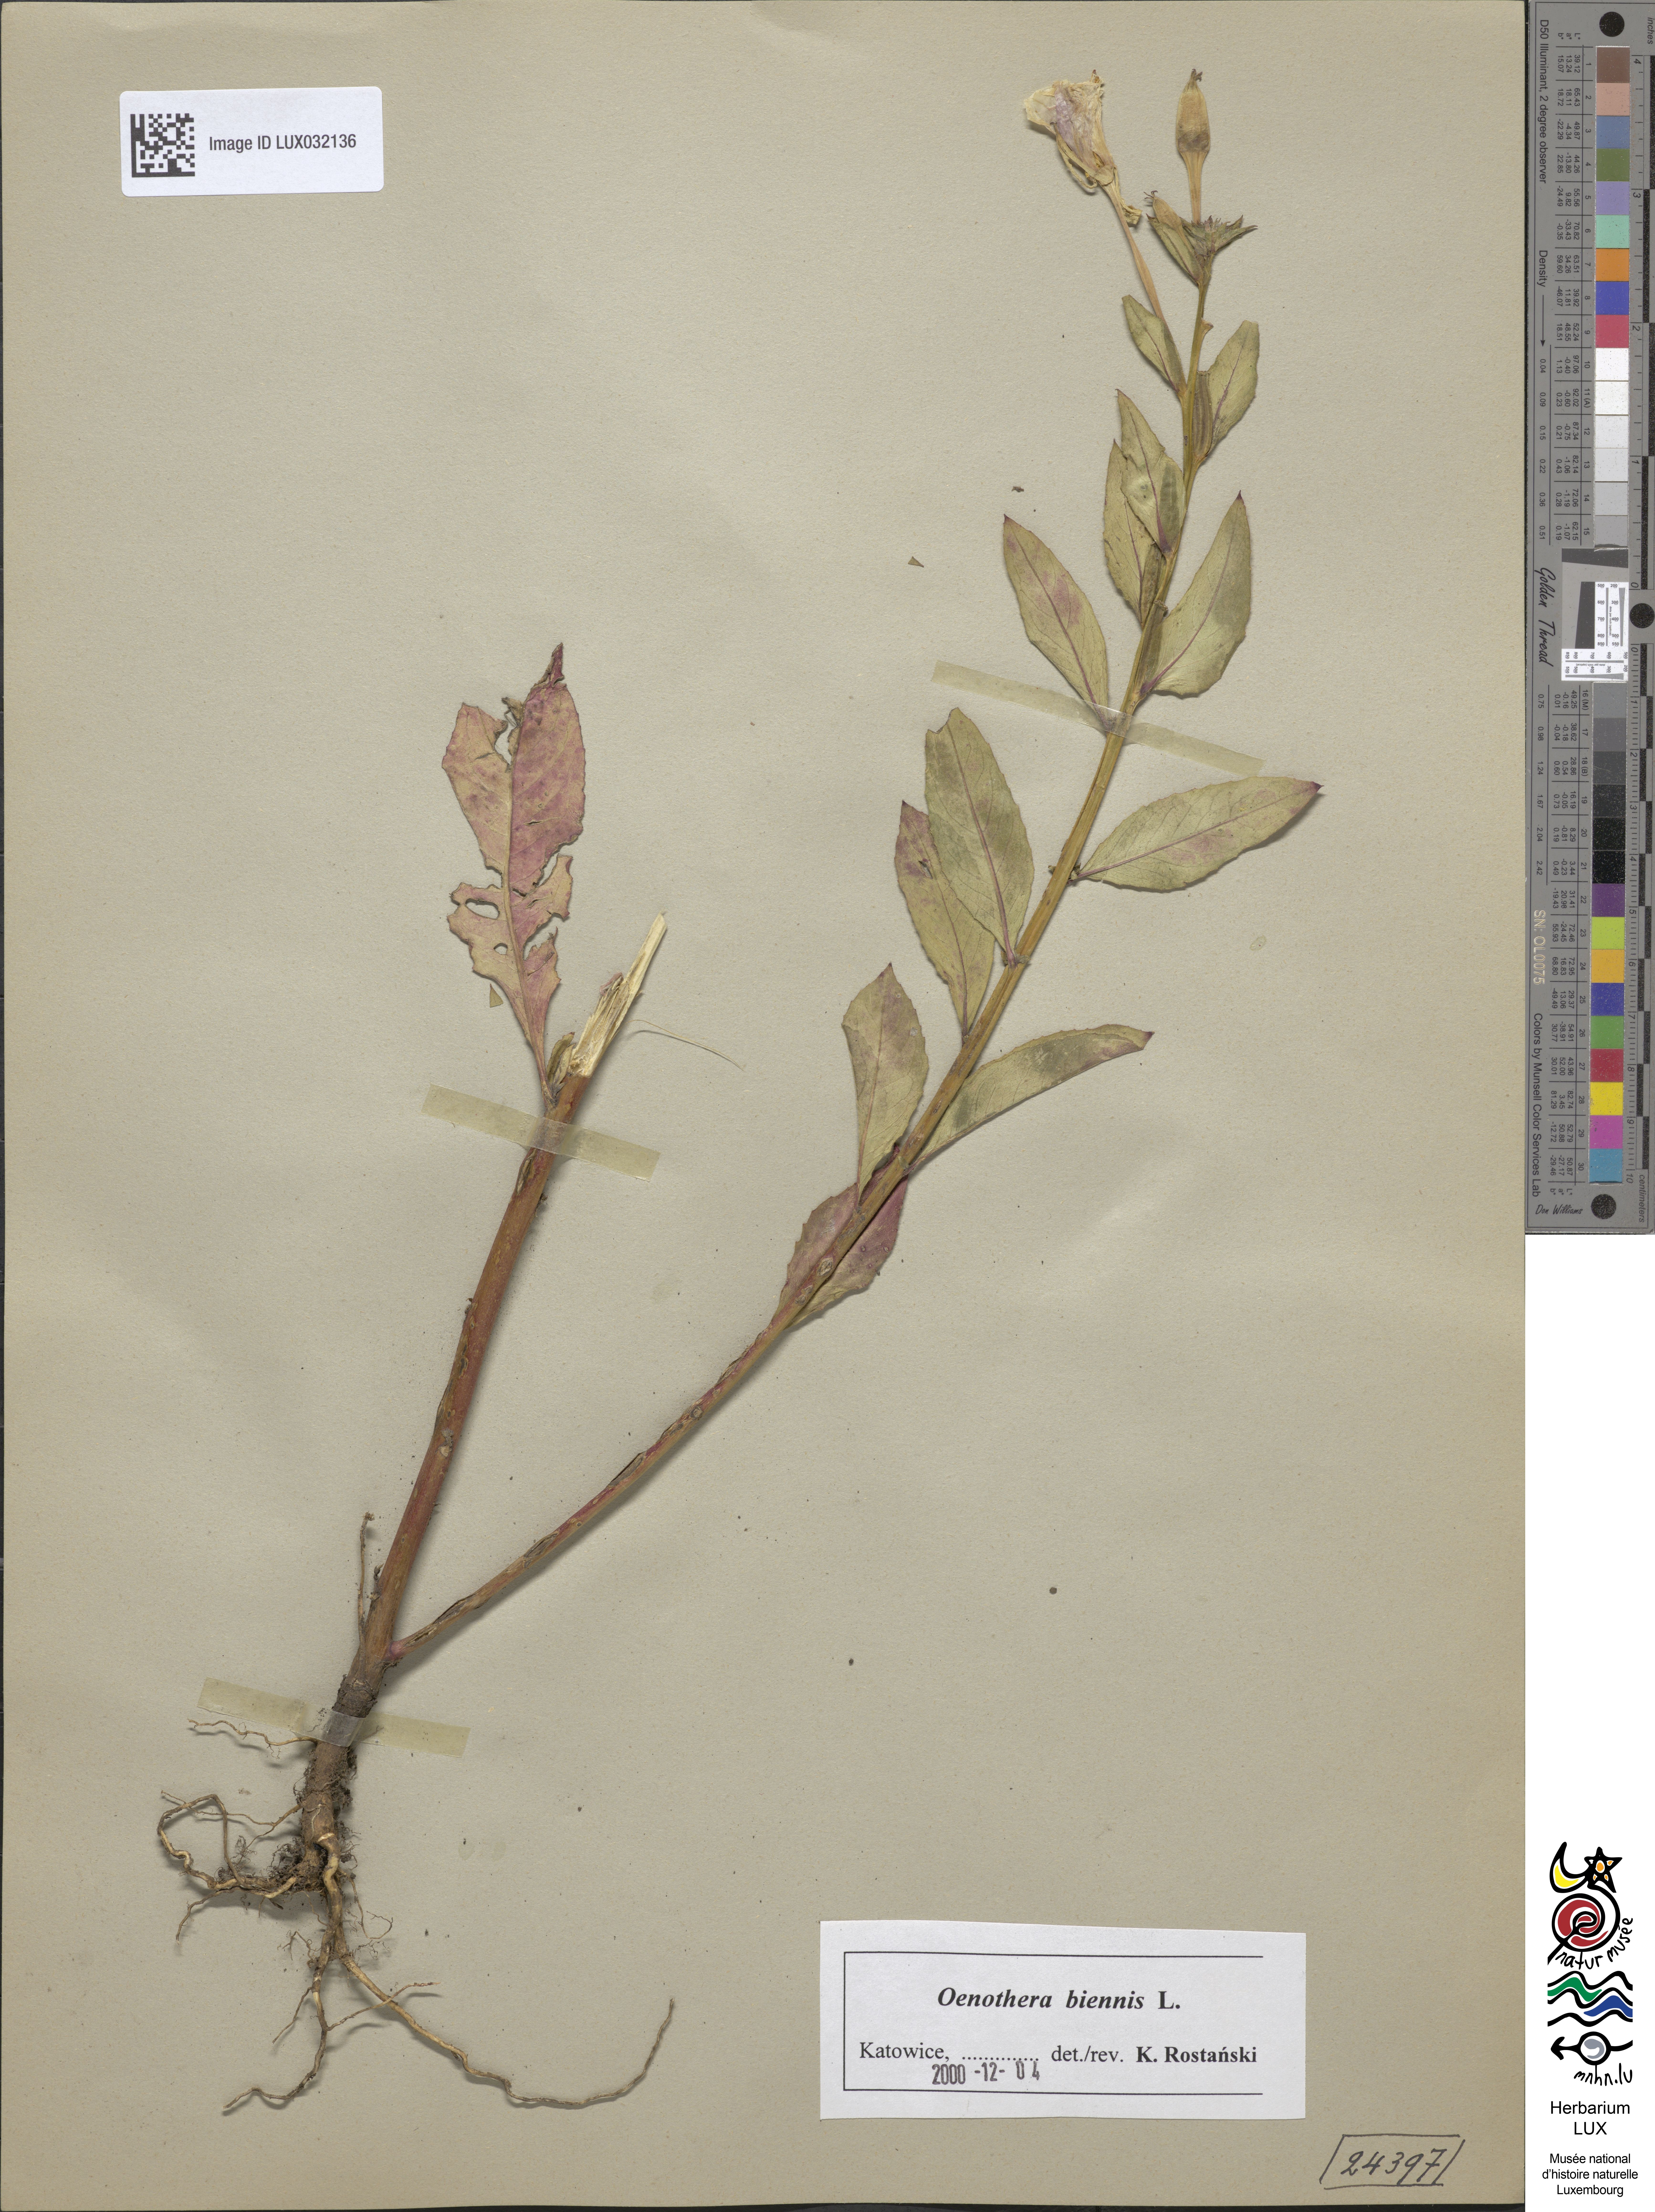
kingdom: Plantae
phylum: Tracheophyta
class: Magnoliopsida
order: Myrtales
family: Onagraceae
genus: Oenothera
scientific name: Oenothera biennis
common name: Common evening-primrose
